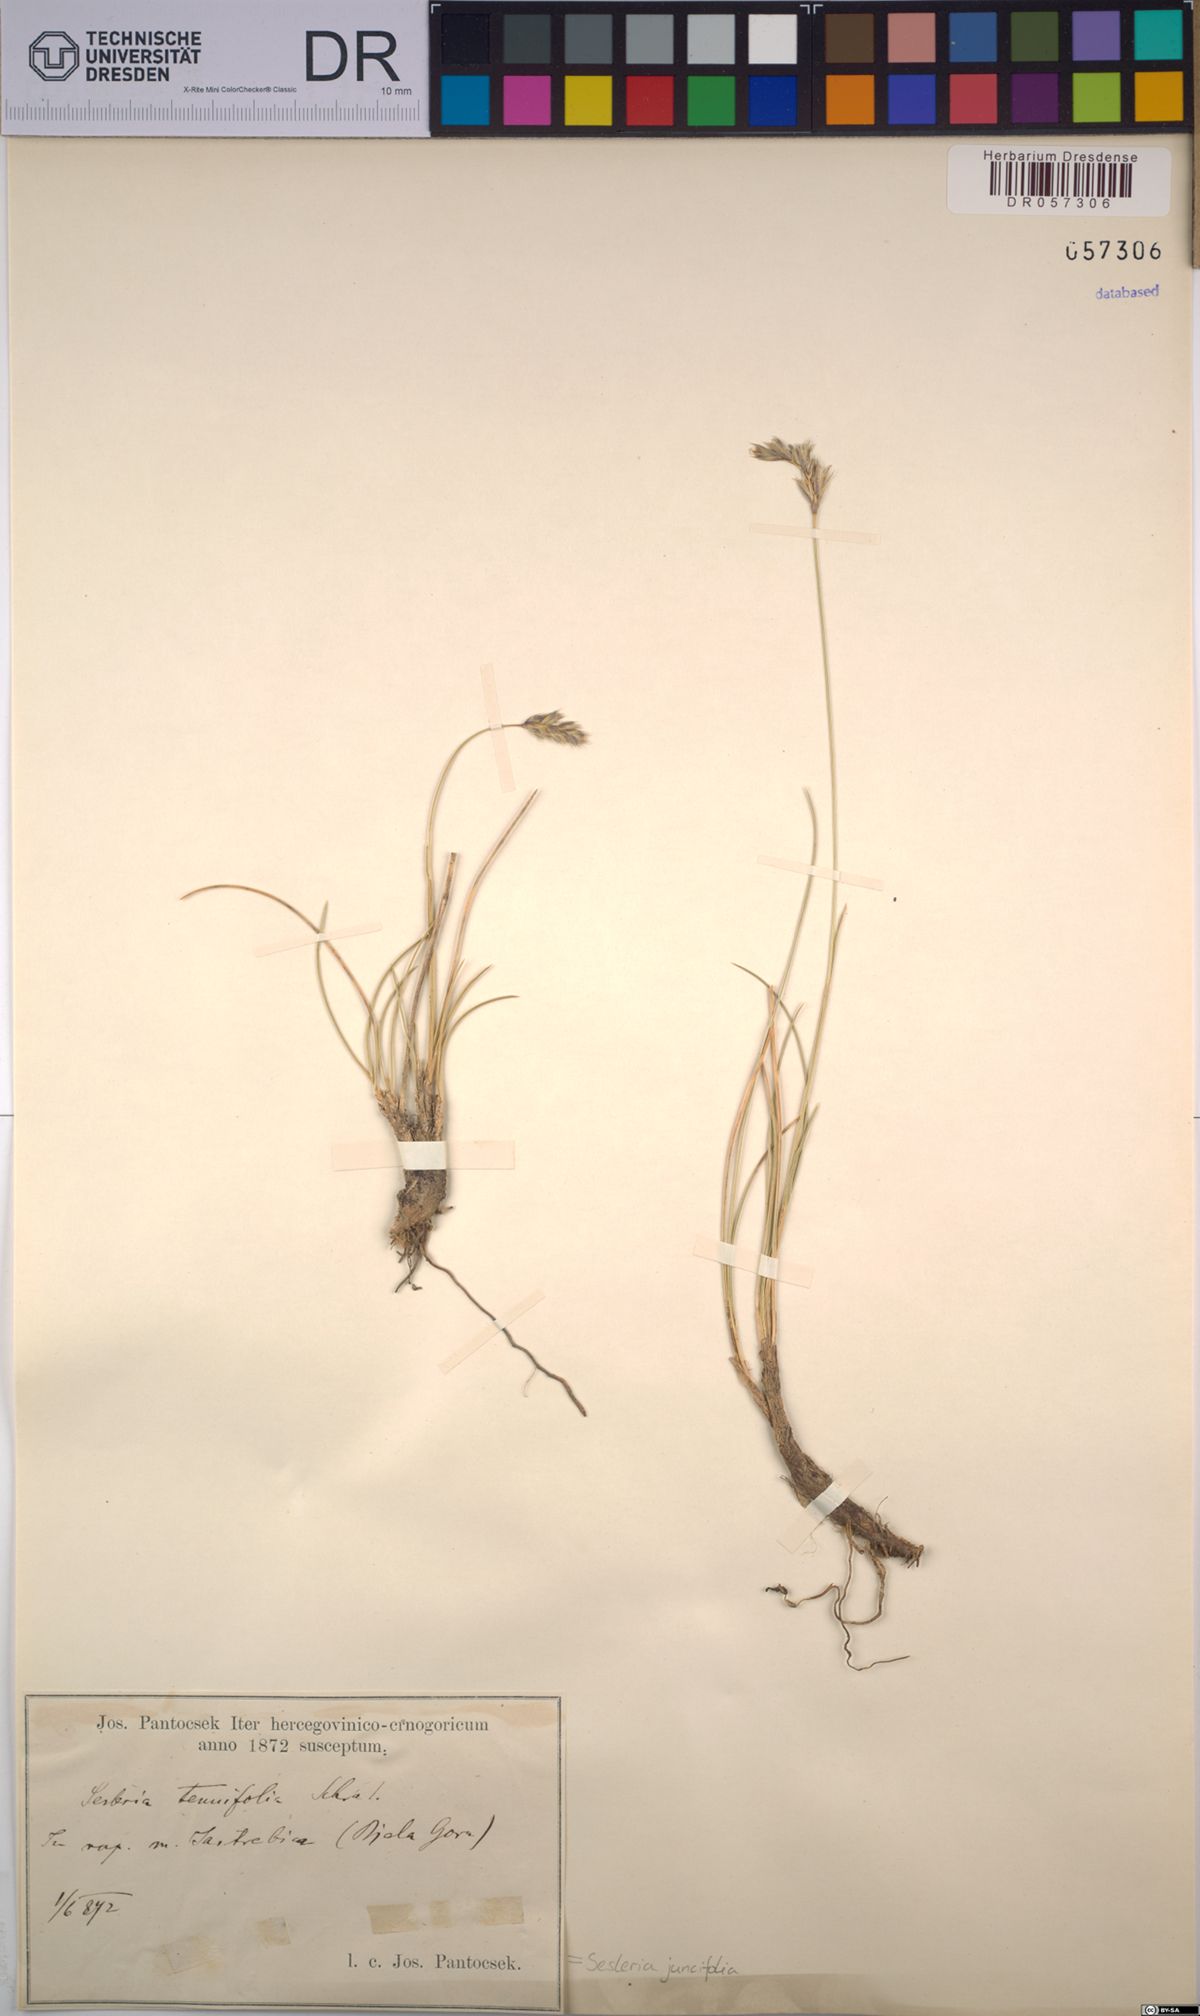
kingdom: Plantae
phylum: Tracheophyta
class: Liliopsida
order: Poales
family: Poaceae
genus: Sesleria
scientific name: Sesleria juncifolia
